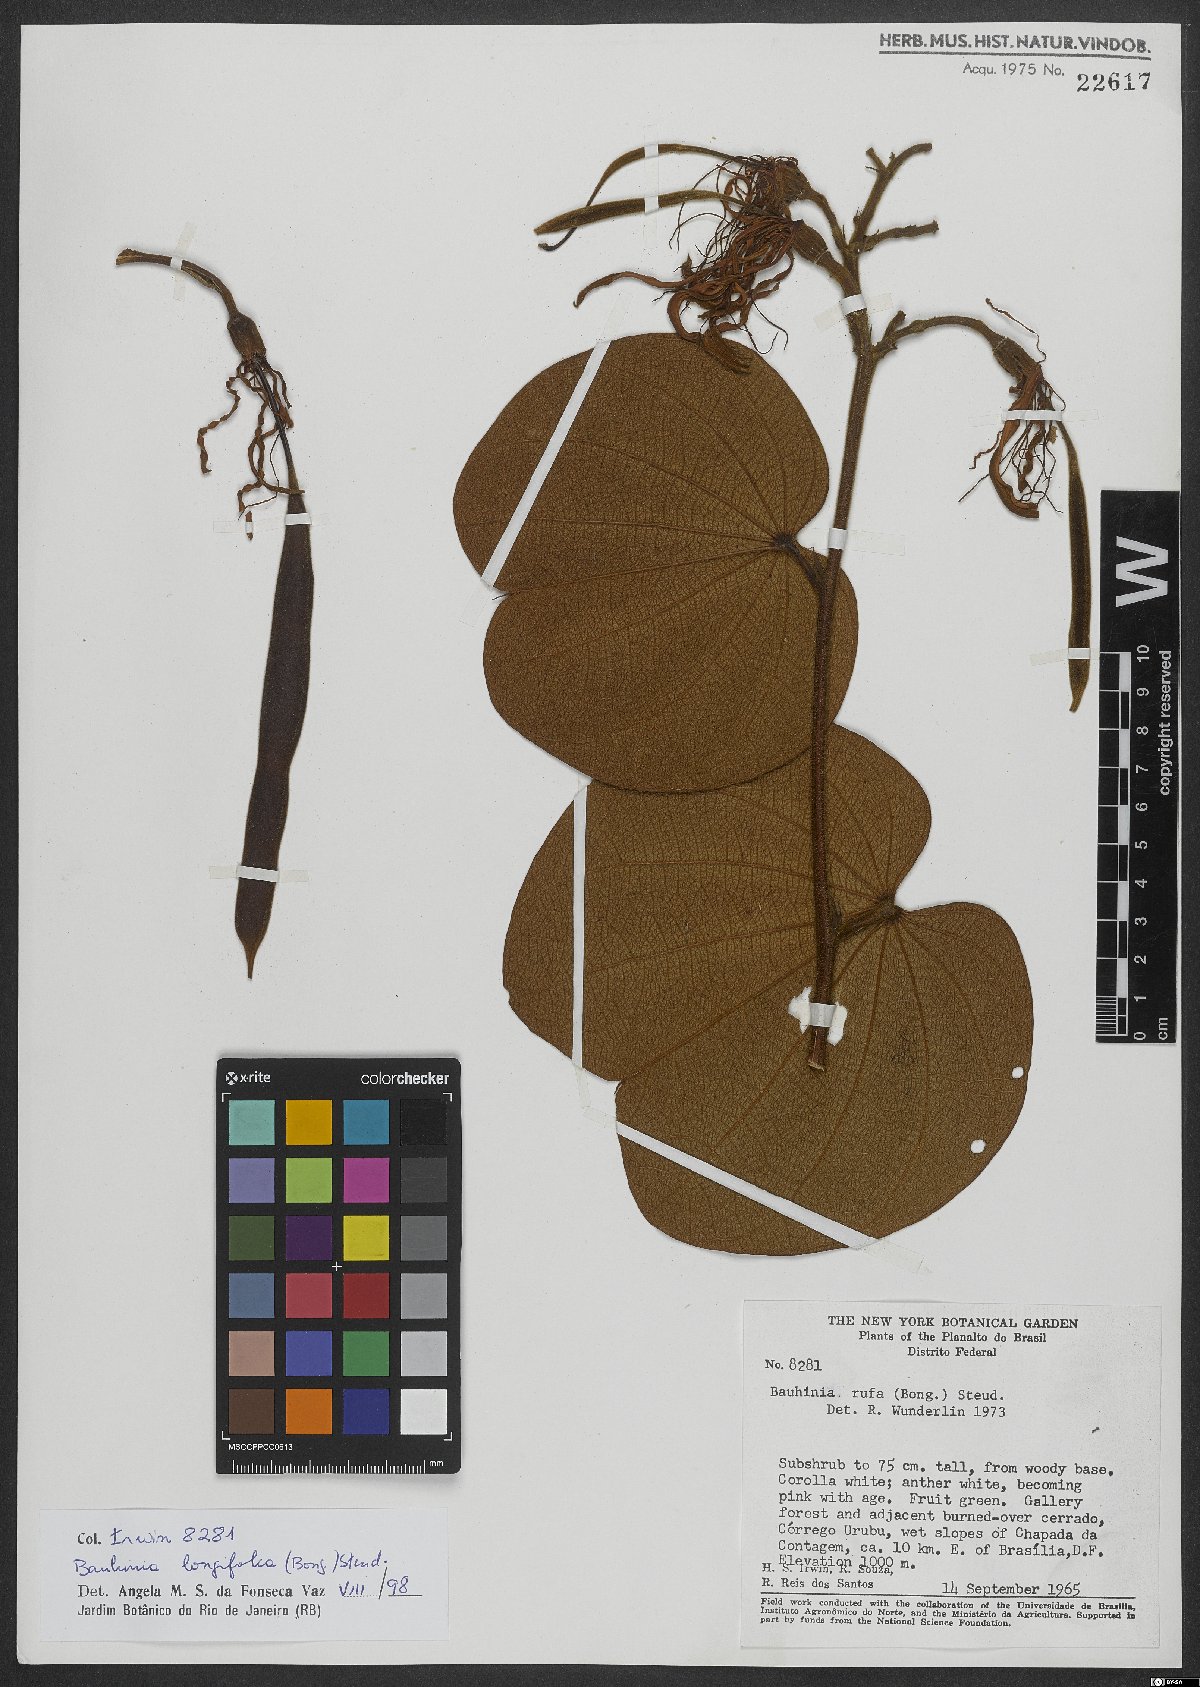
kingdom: Plantae
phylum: Tracheophyta
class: Magnoliopsida
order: Fabales
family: Fabaceae
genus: Bauhinia
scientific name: Bauhinia longifolia
